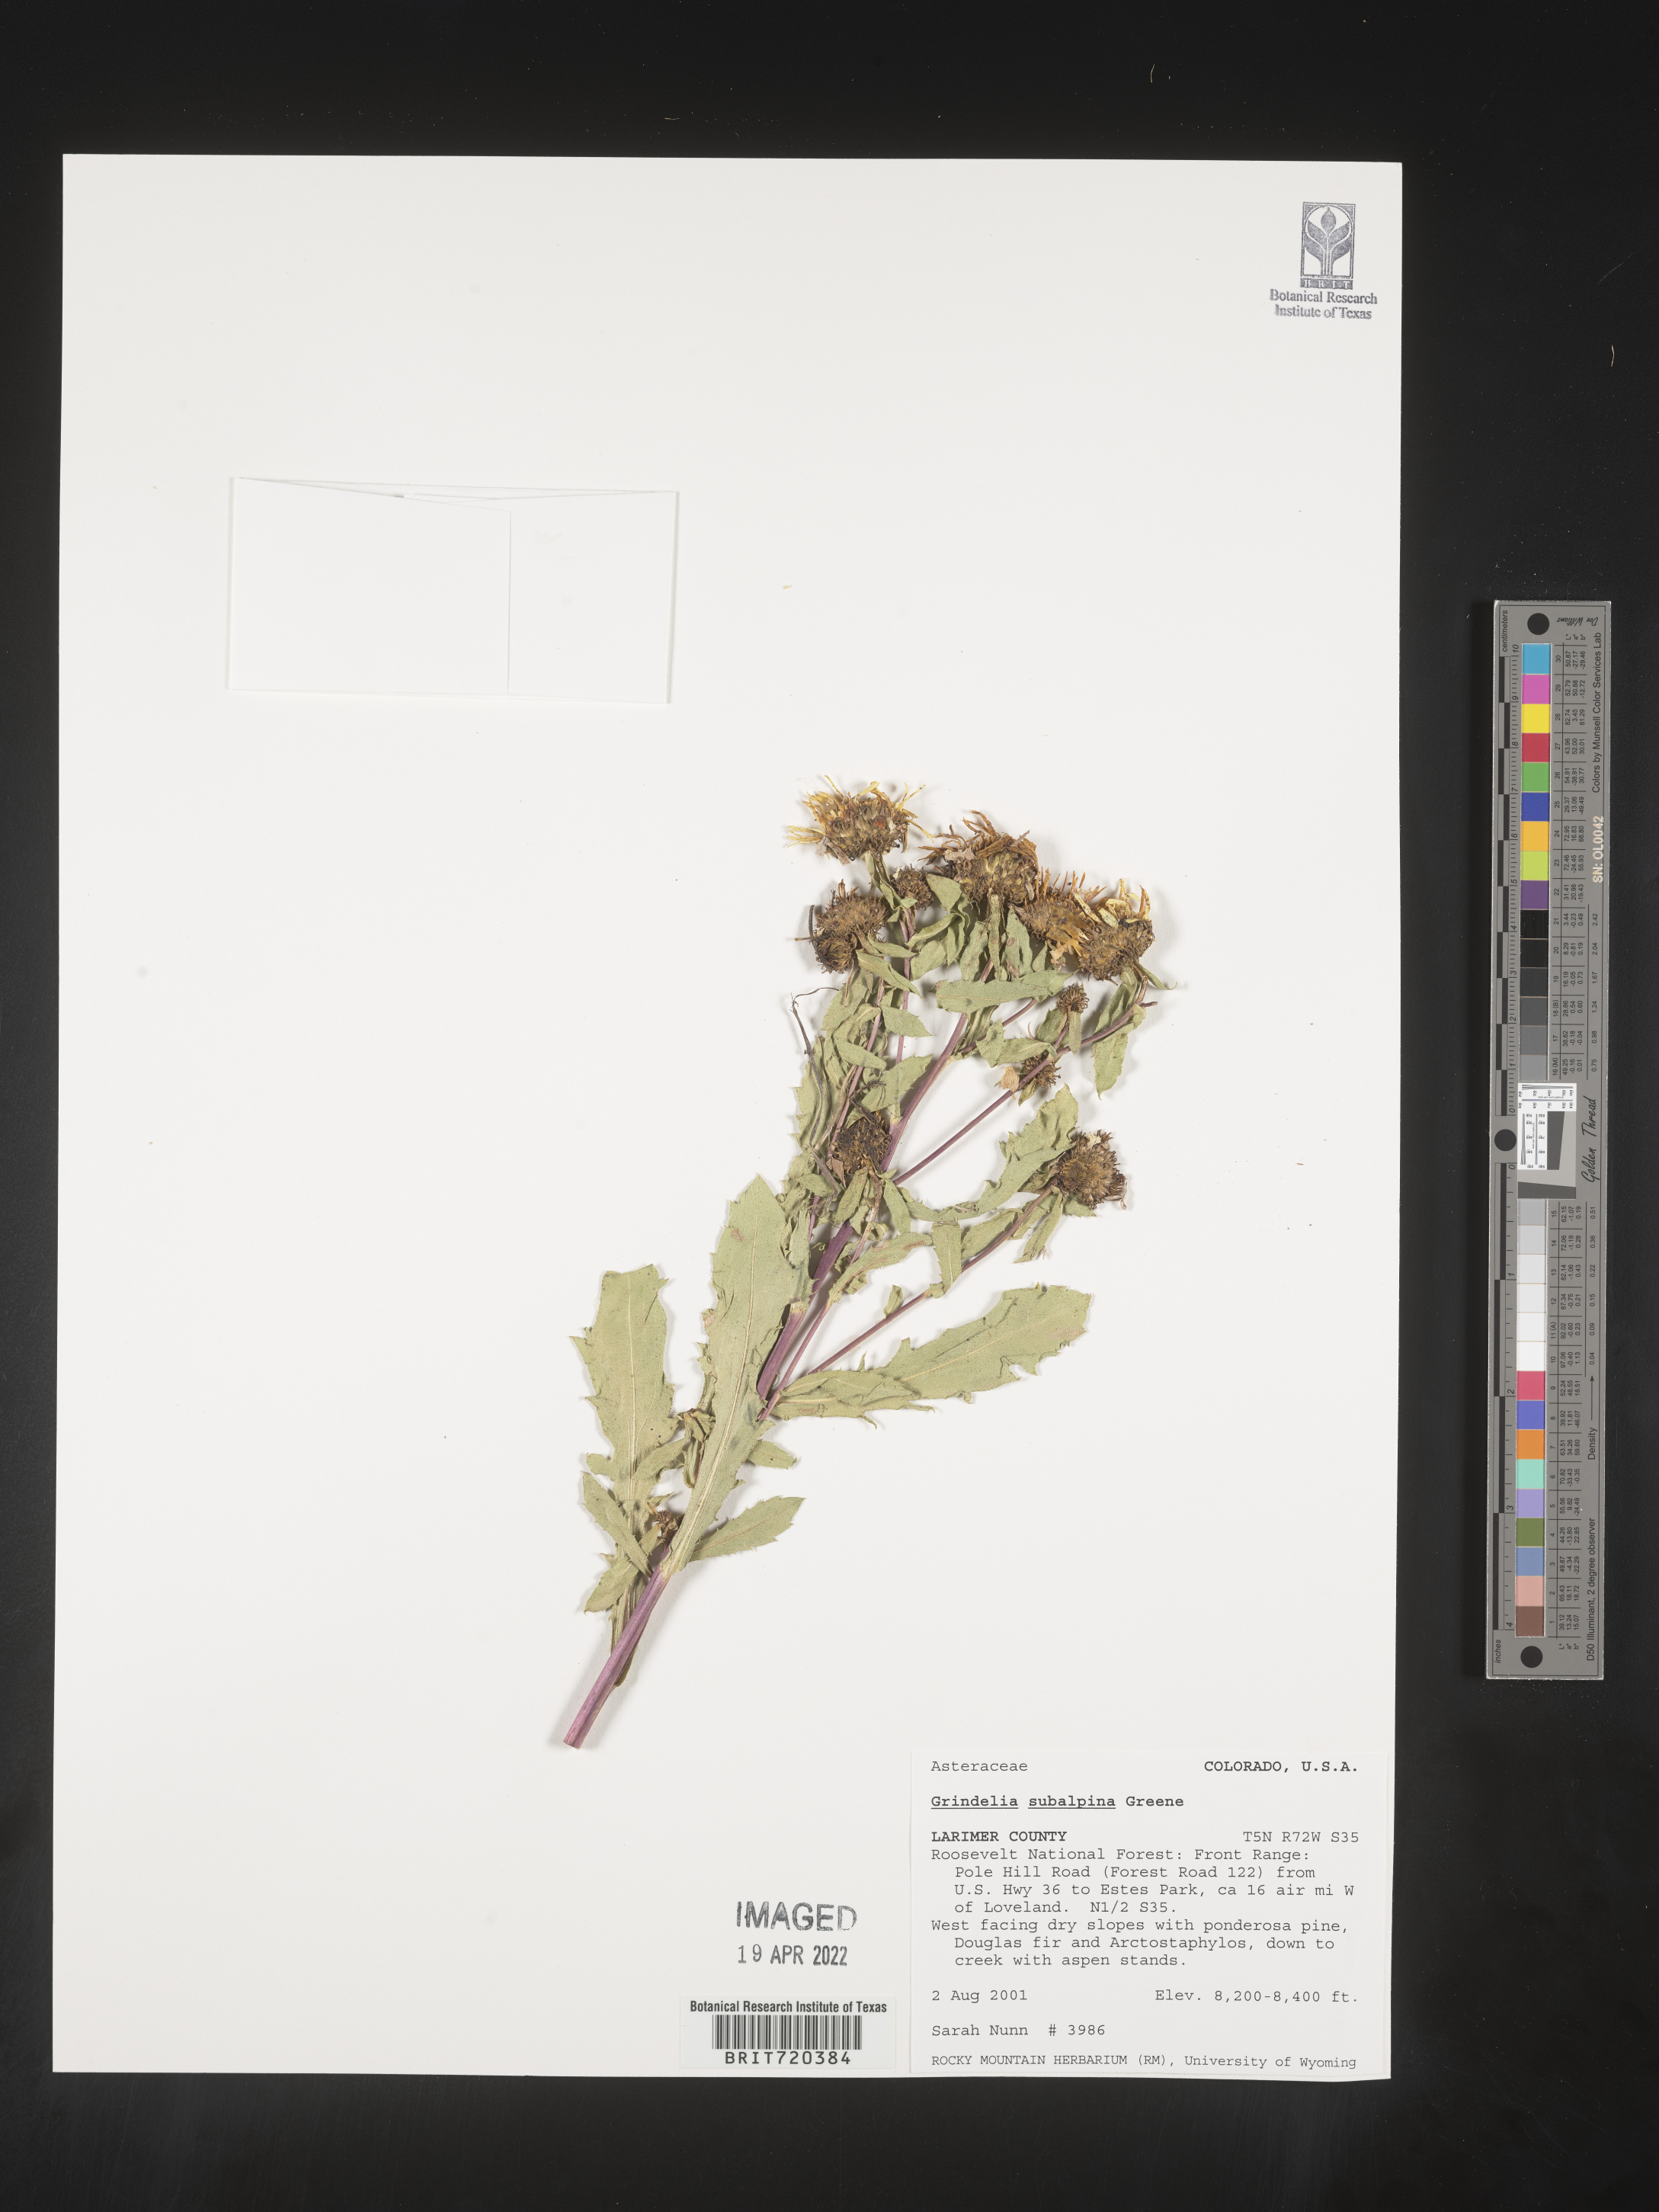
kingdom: Plantae
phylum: Tracheophyta
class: Magnoliopsida
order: Asterales
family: Asteraceae
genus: Grindelia
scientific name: Grindelia subalpina
